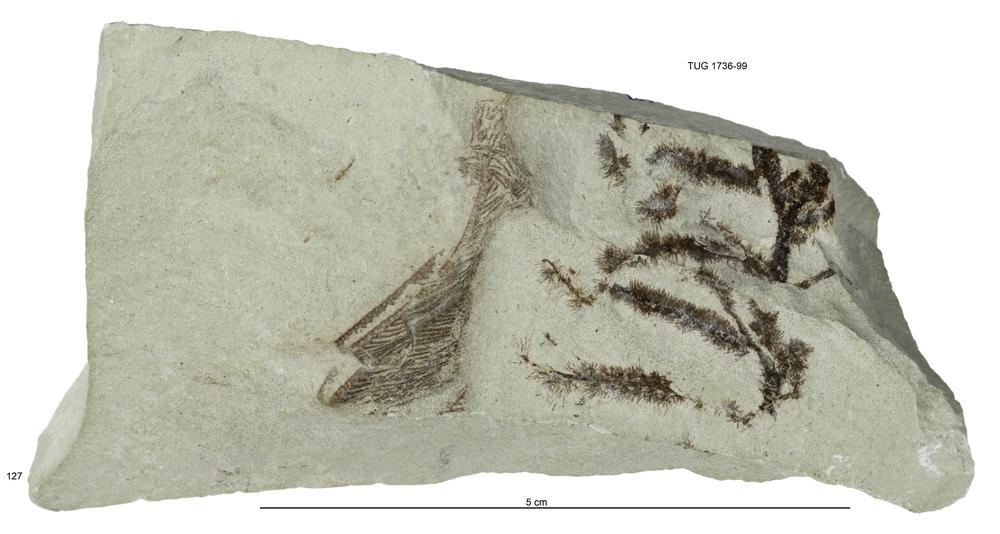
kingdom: Animalia
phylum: Echinodermata
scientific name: Echinodermata
